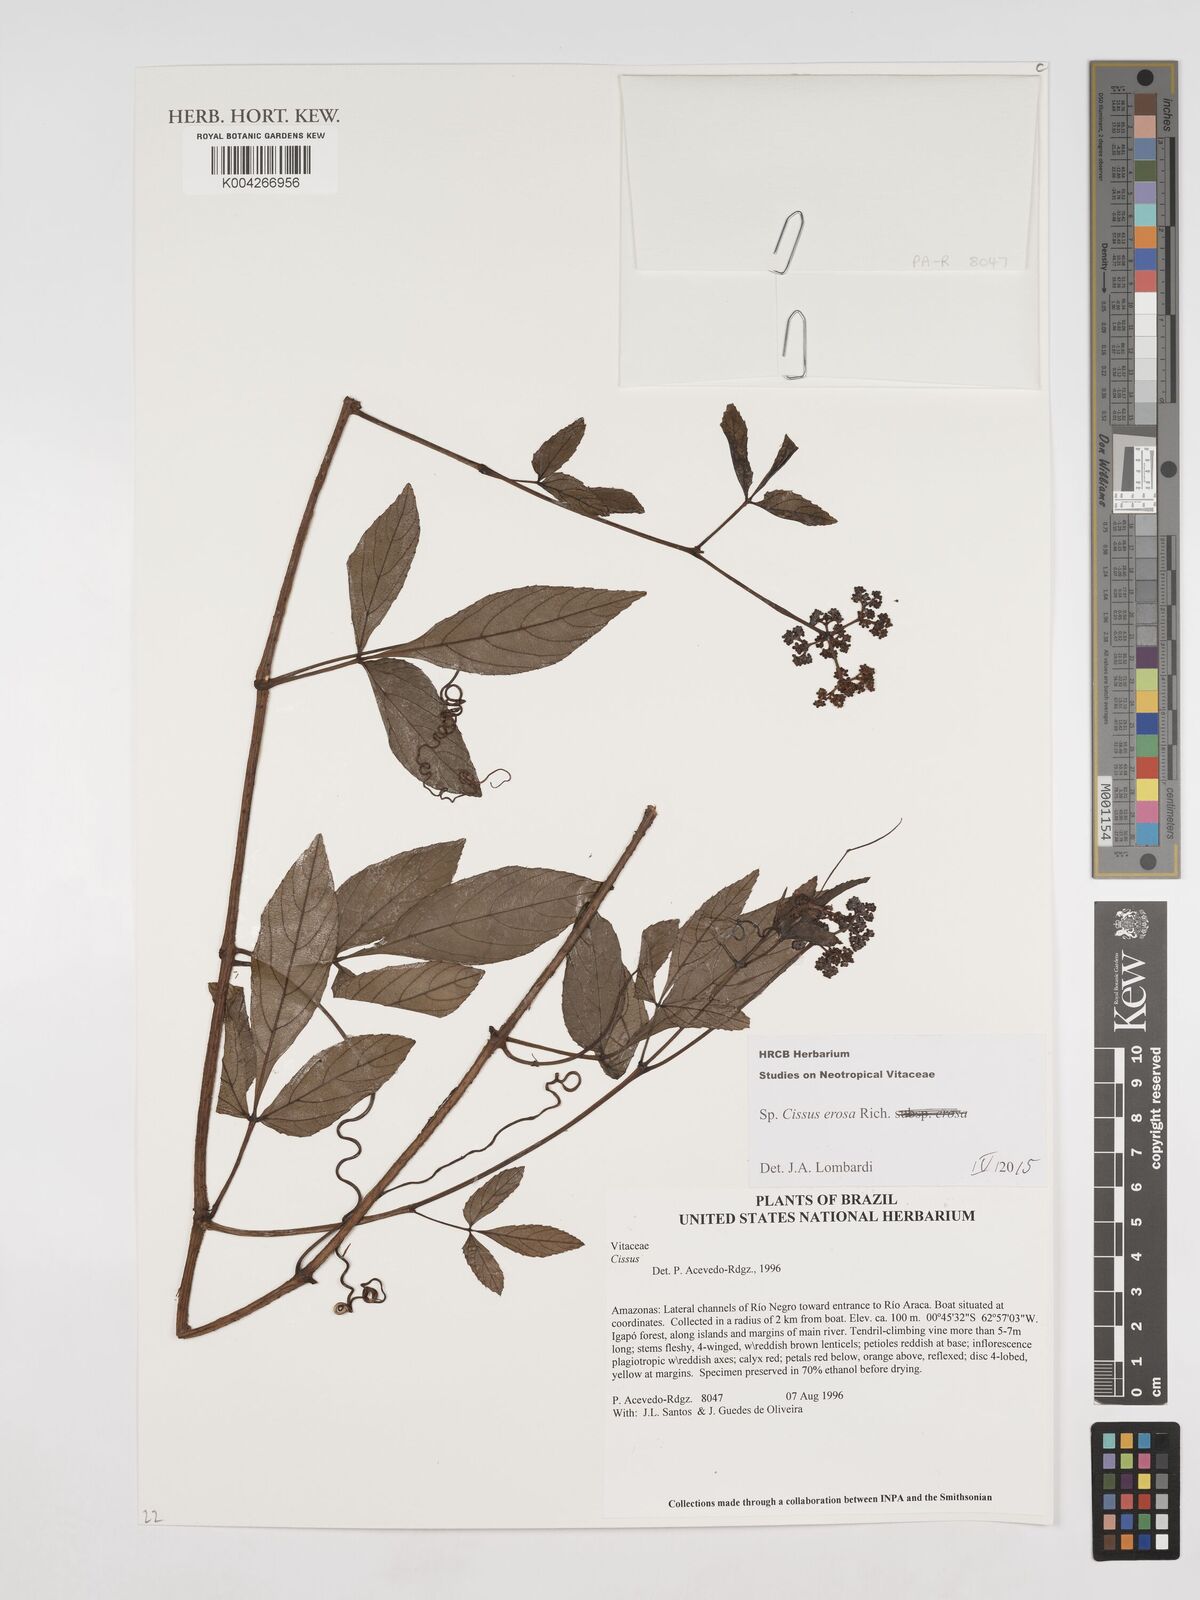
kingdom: Plantae
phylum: Tracheophyta
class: Magnoliopsida
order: Vitales
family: Vitaceae
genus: Cissus
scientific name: Cissus erosa
